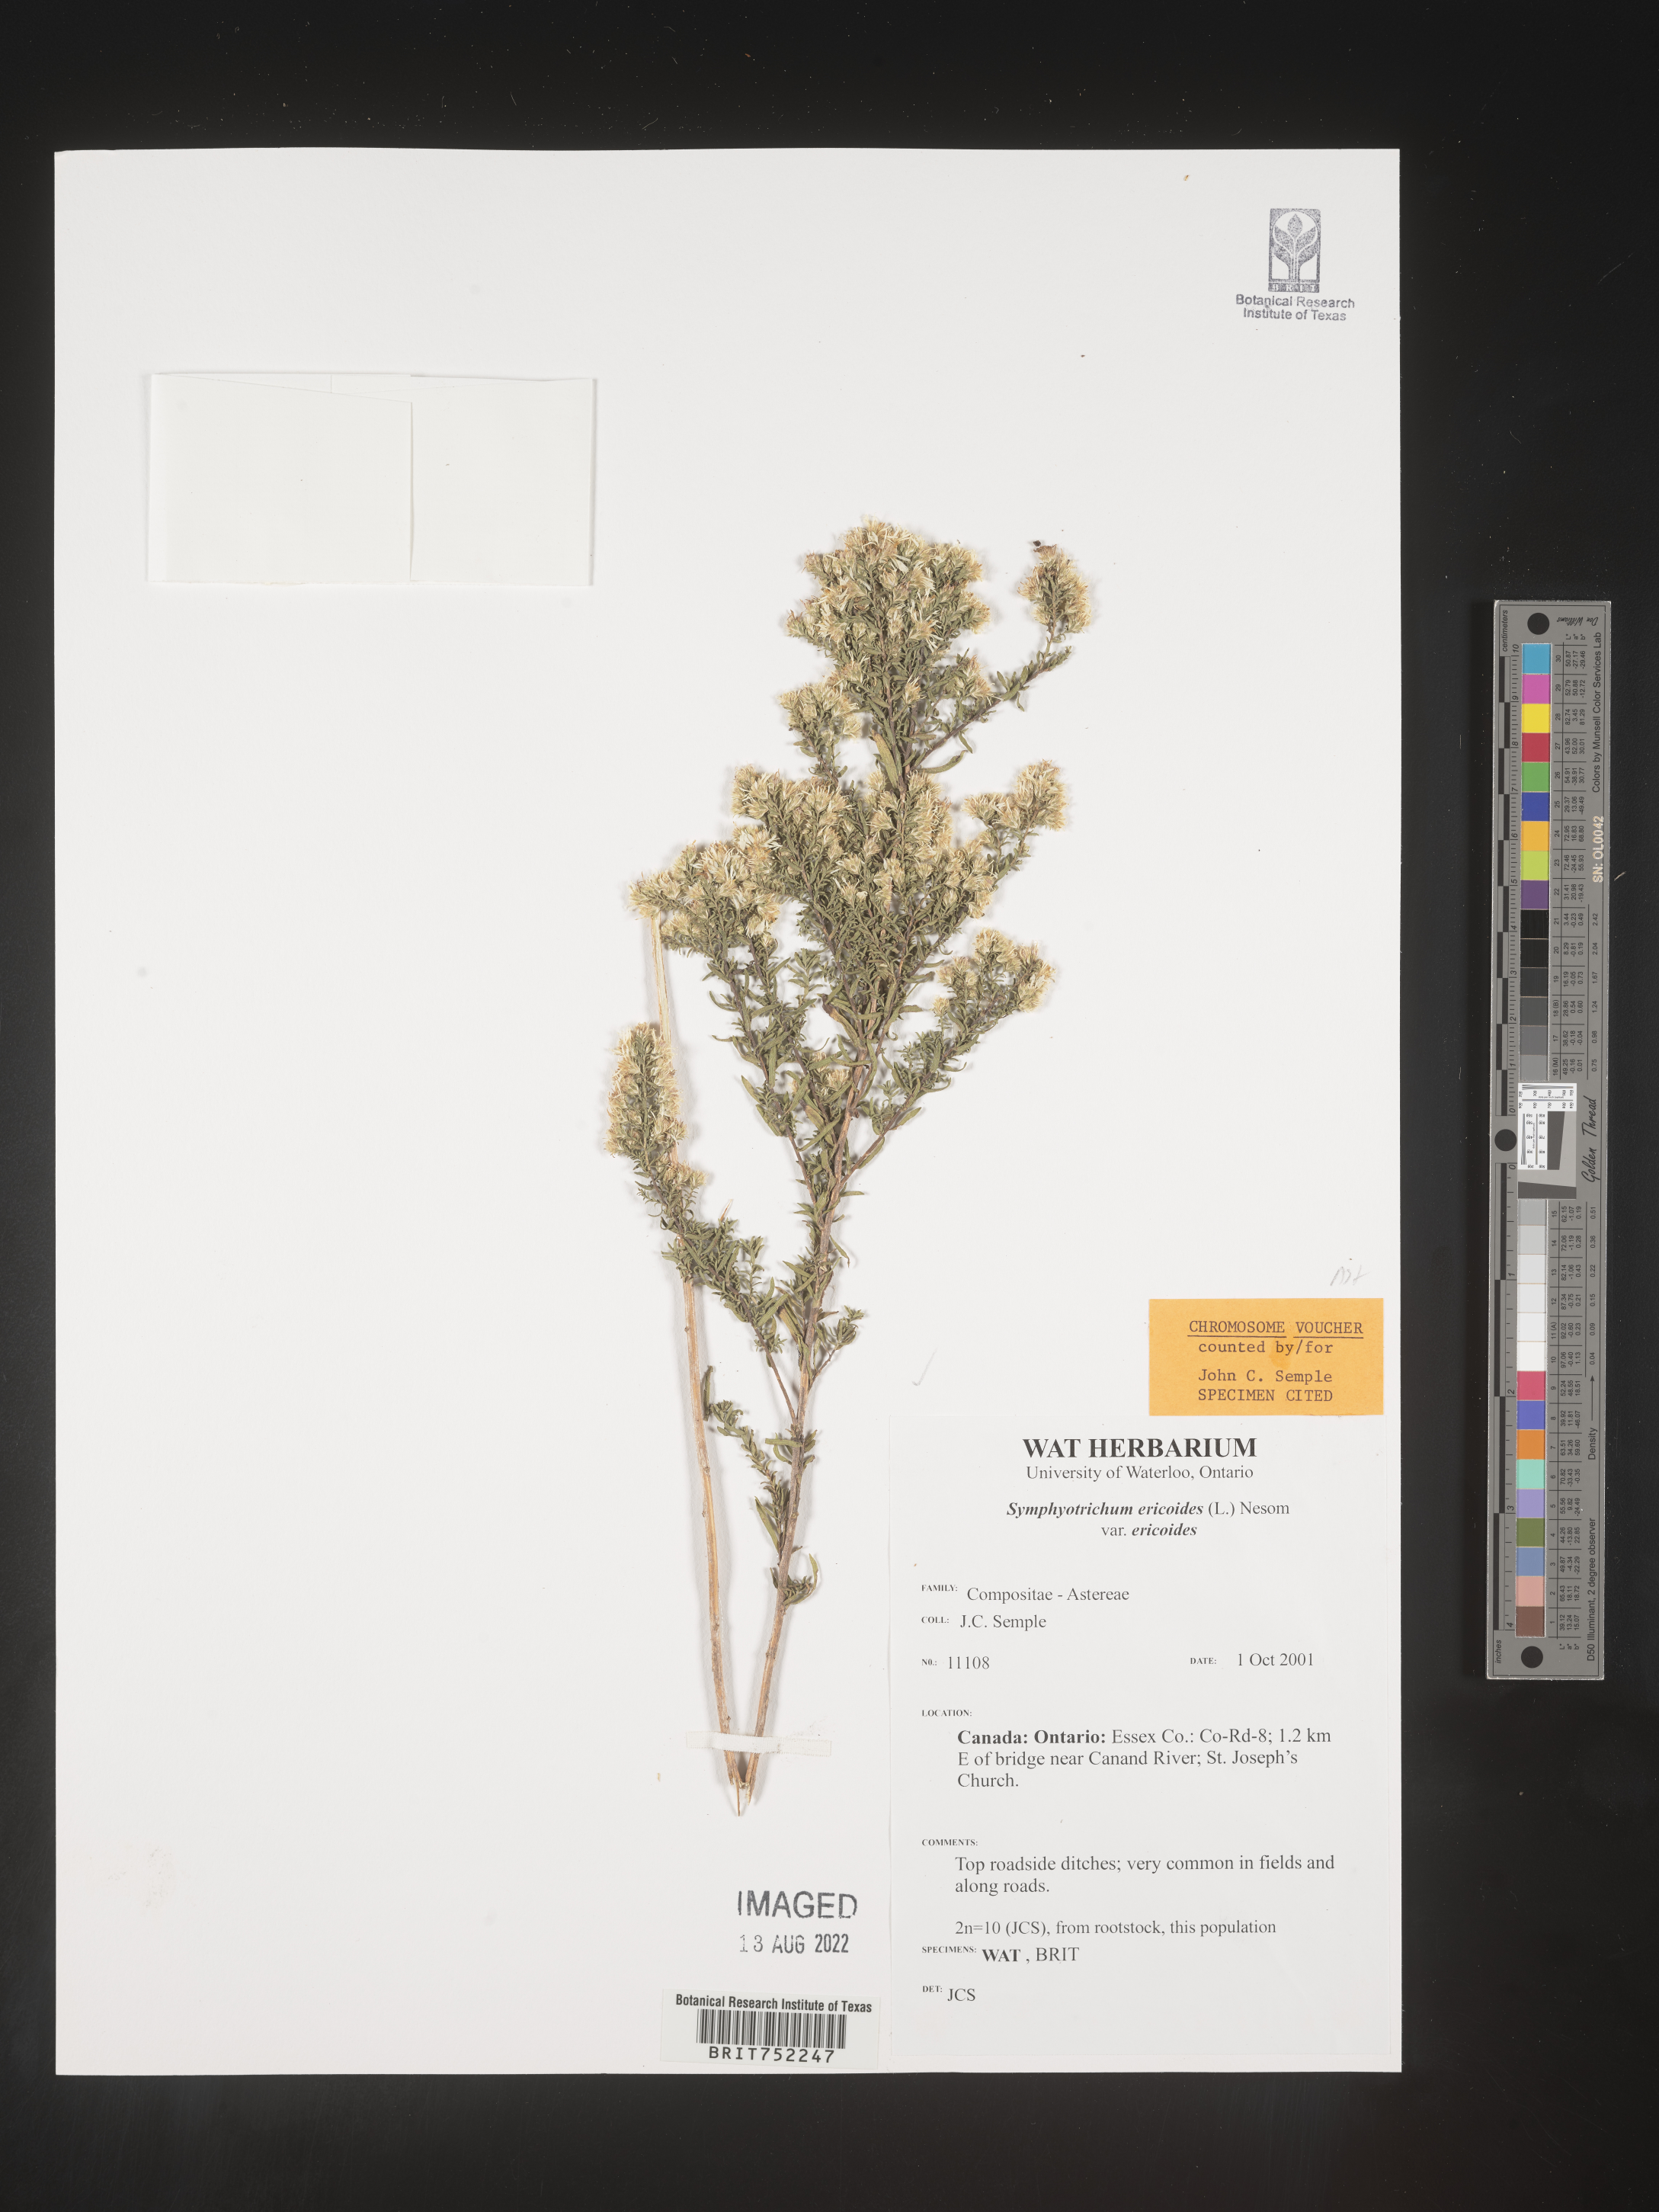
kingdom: Plantae
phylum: Tracheophyta
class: Magnoliopsida
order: Asterales
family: Asteraceae
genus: Symphyotrichum
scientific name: Symphyotrichum ericoides
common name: Heath aster
